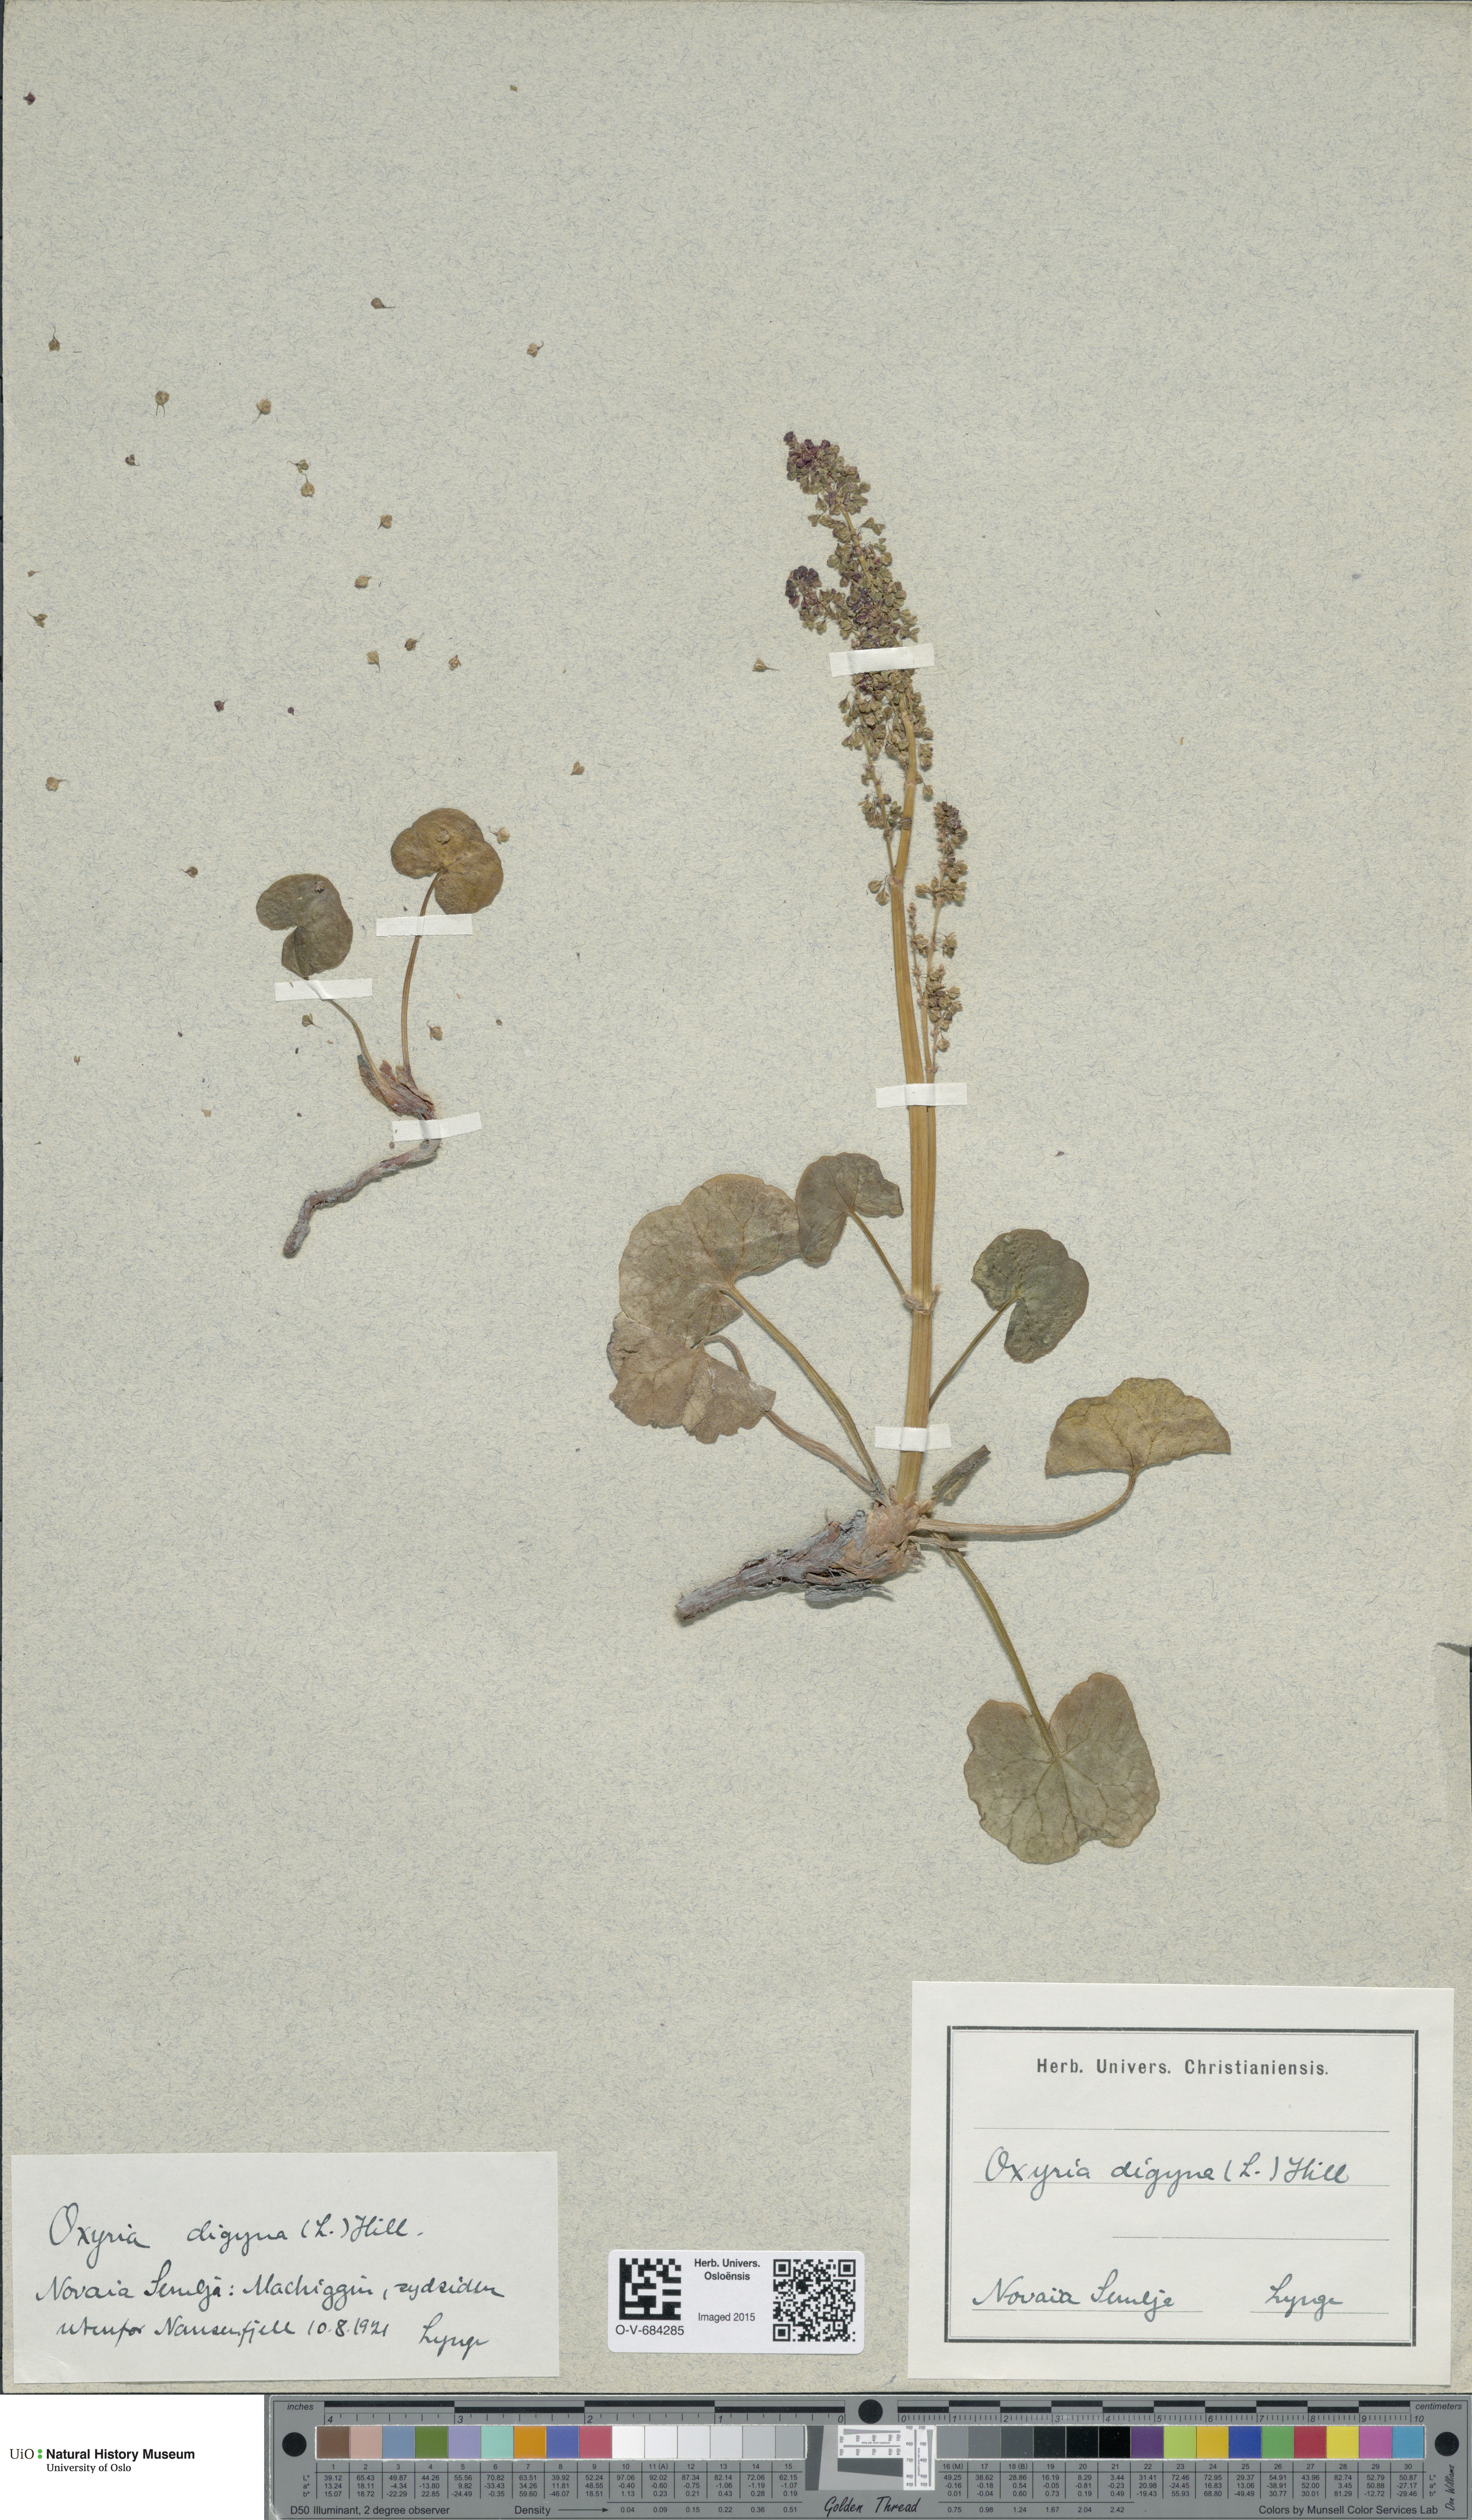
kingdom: Plantae
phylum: Tracheophyta
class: Magnoliopsida
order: Caryophyllales
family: Polygonaceae
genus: Oxyria
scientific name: Oxyria digyna
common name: Alpine mountain-sorrel
